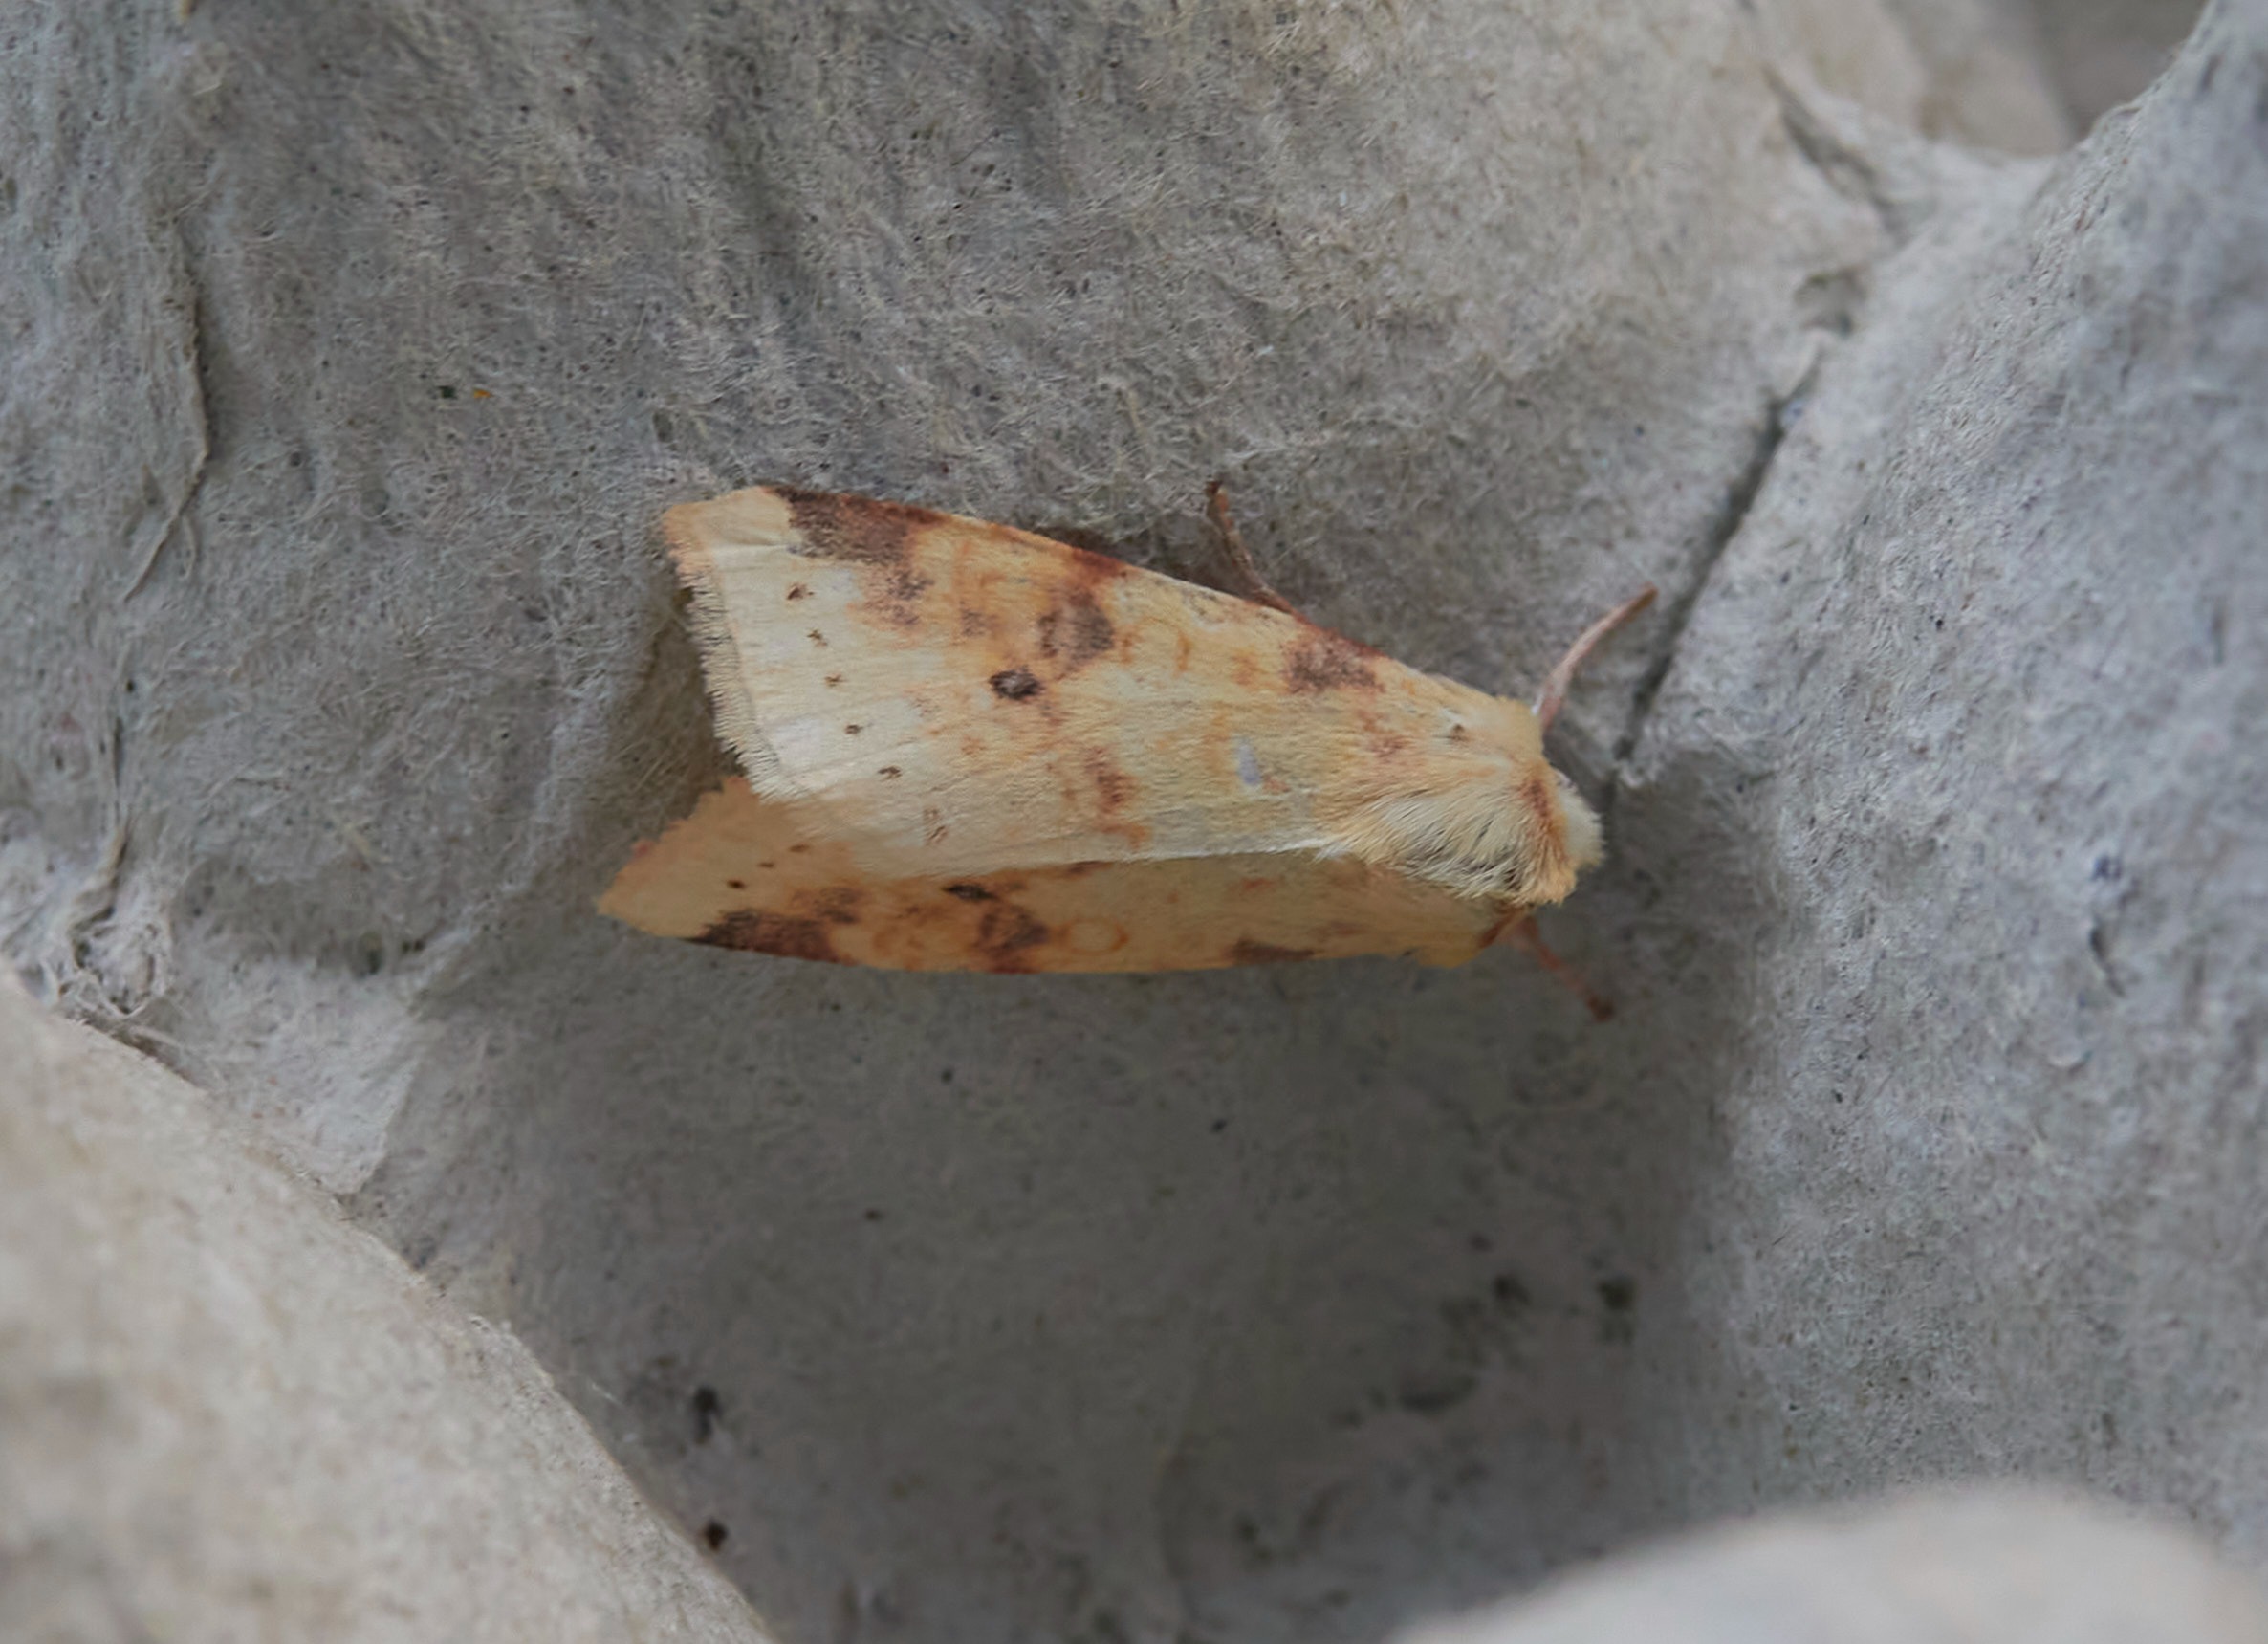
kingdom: Animalia
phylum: Arthropoda
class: Insecta
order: Lepidoptera
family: Noctuidae
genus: Xanthia
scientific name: Xanthia Cirrhia icteritia
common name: Brombær-guldugle
